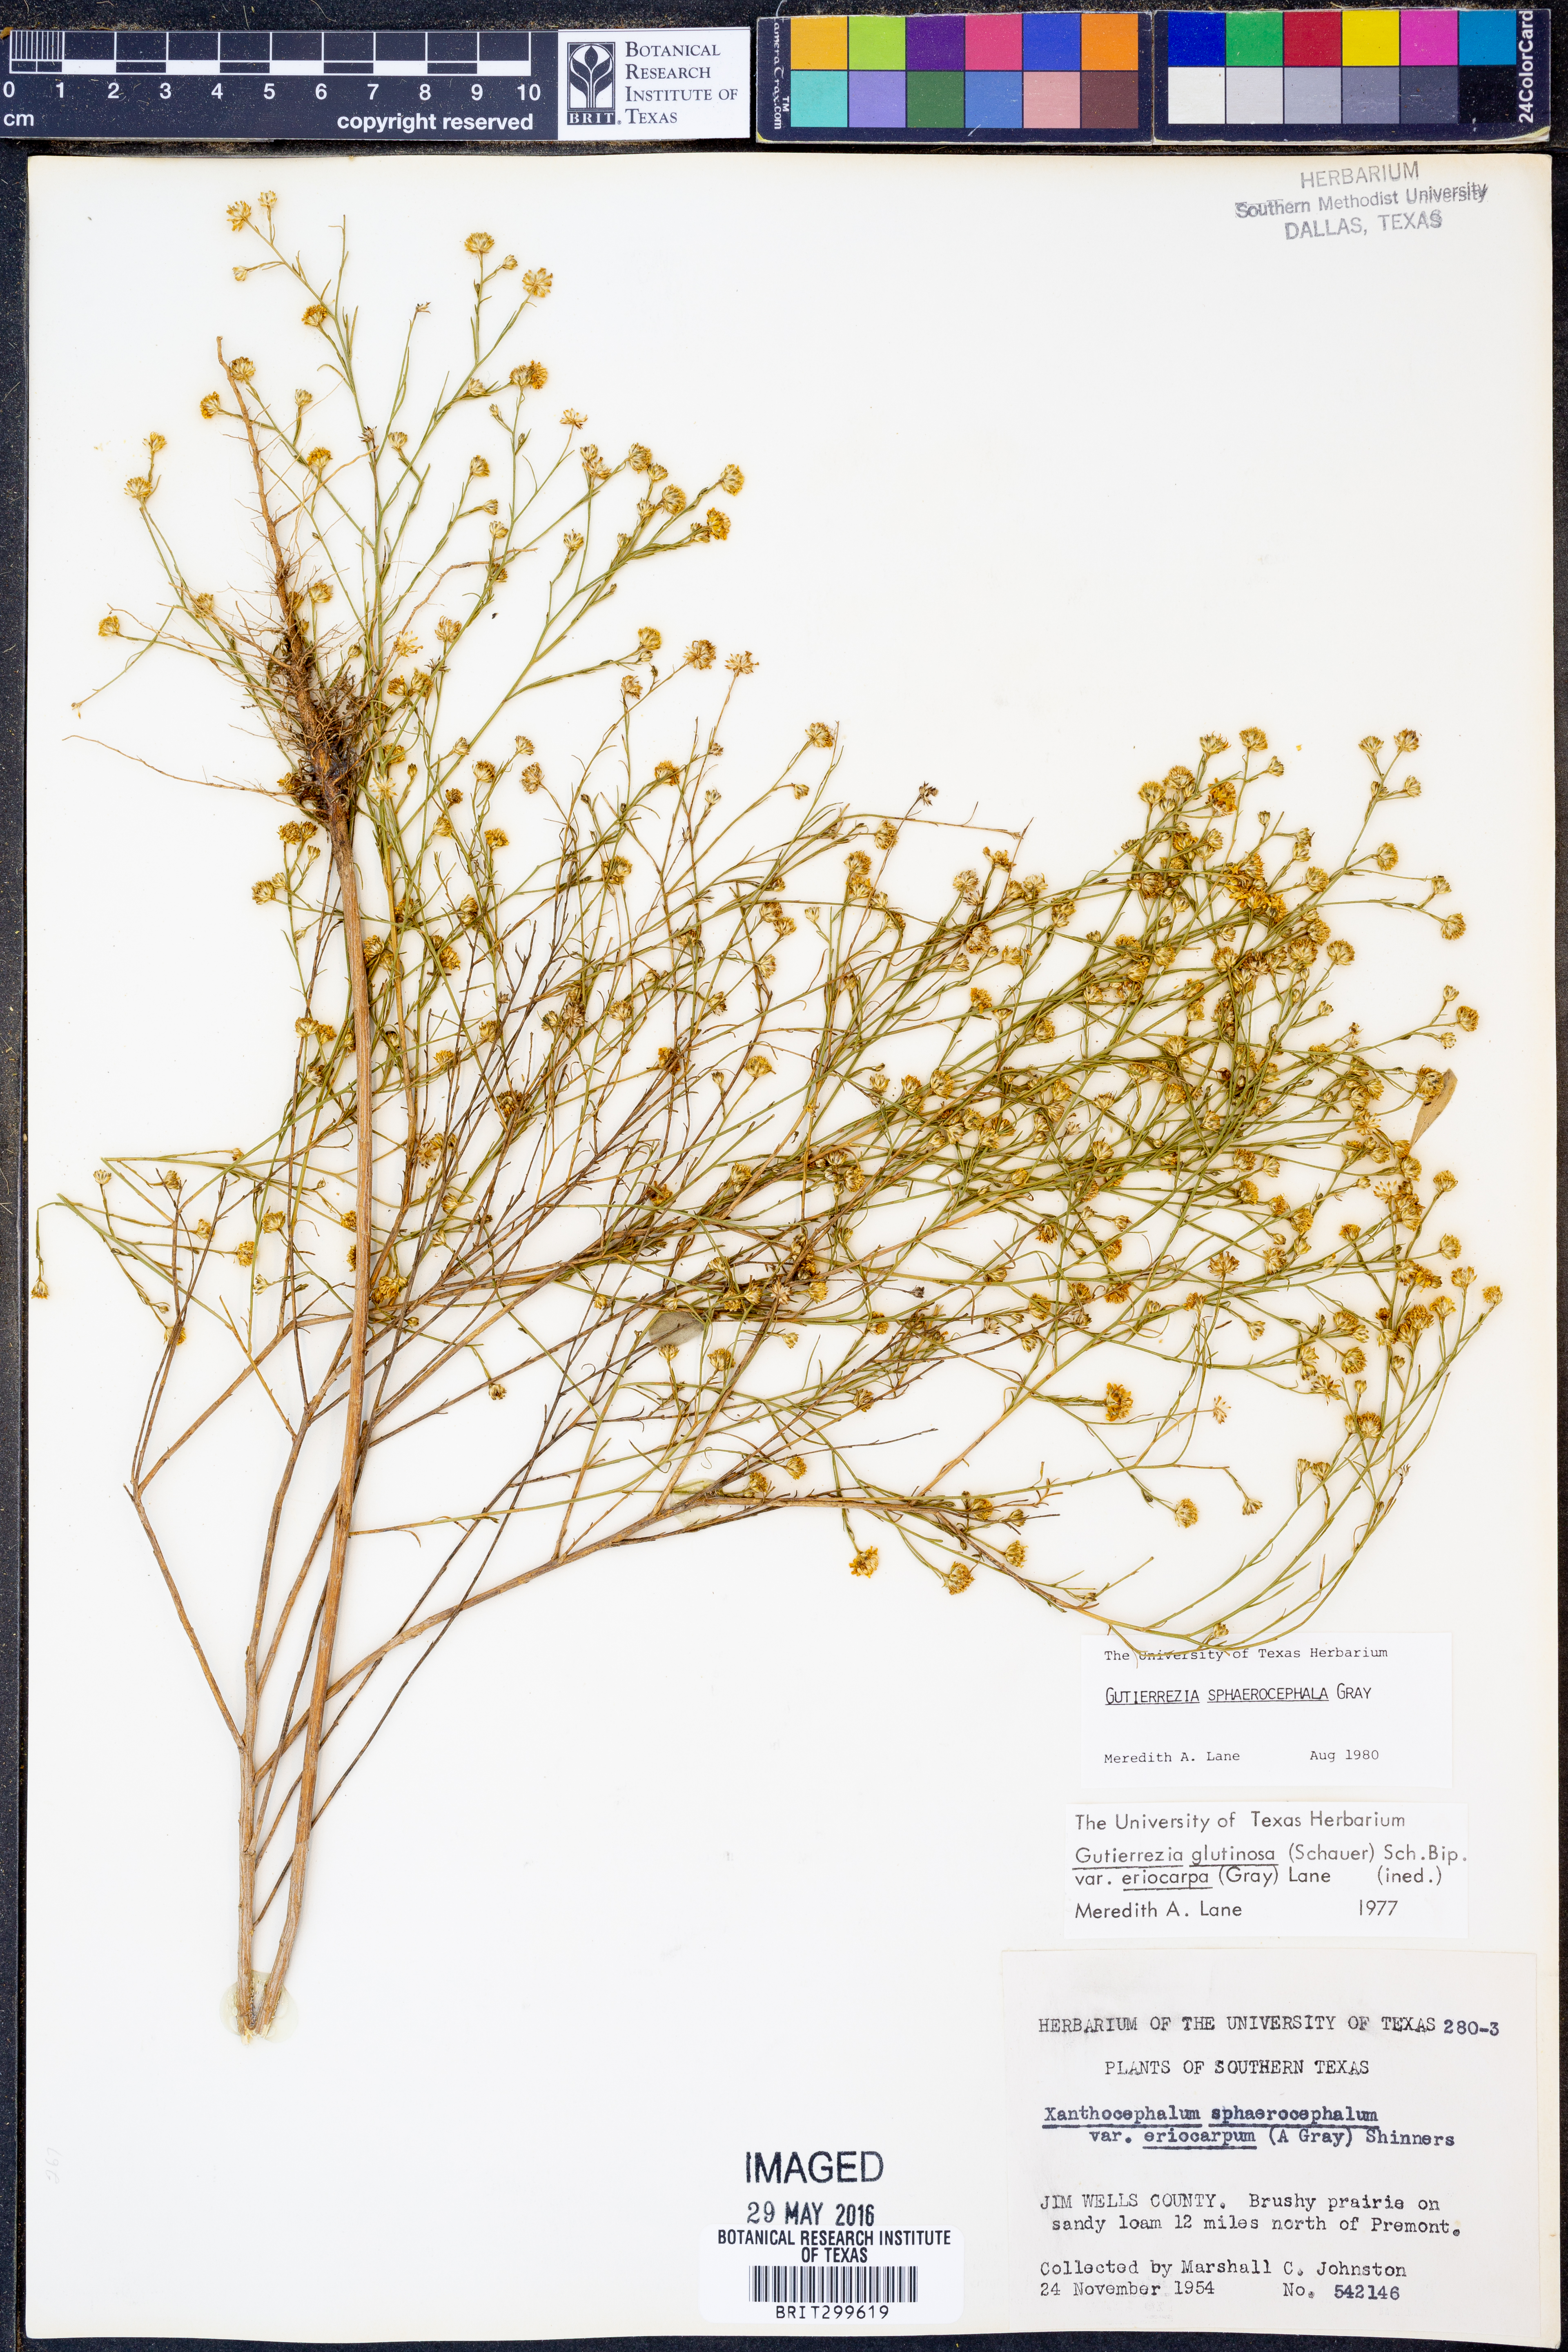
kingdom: Plantae
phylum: Tracheophyta
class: Magnoliopsida
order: Asterales
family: Asteraceae
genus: Gutierrezia
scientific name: Gutierrezia sphaerocephala
